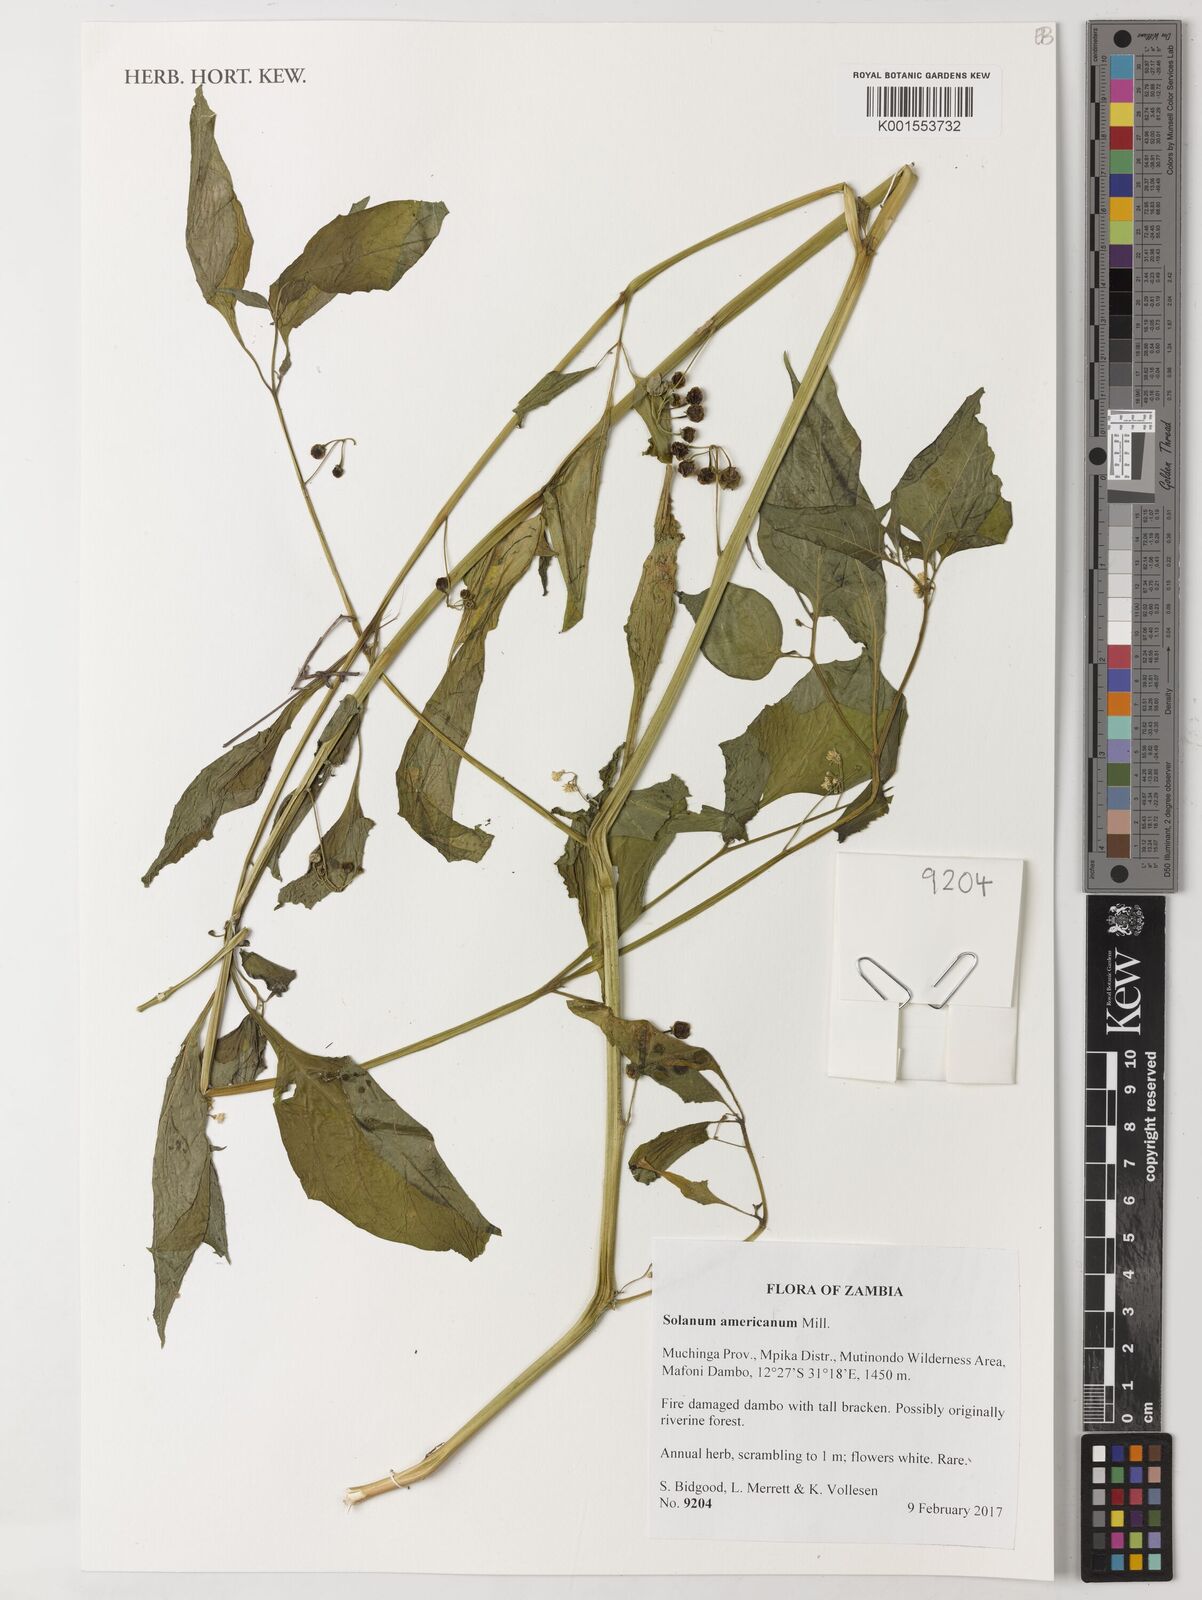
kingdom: Plantae
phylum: Tracheophyta
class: Magnoliopsida
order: Solanales
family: Solanaceae
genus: Solanum
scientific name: Solanum americanum
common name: American black nightshade
